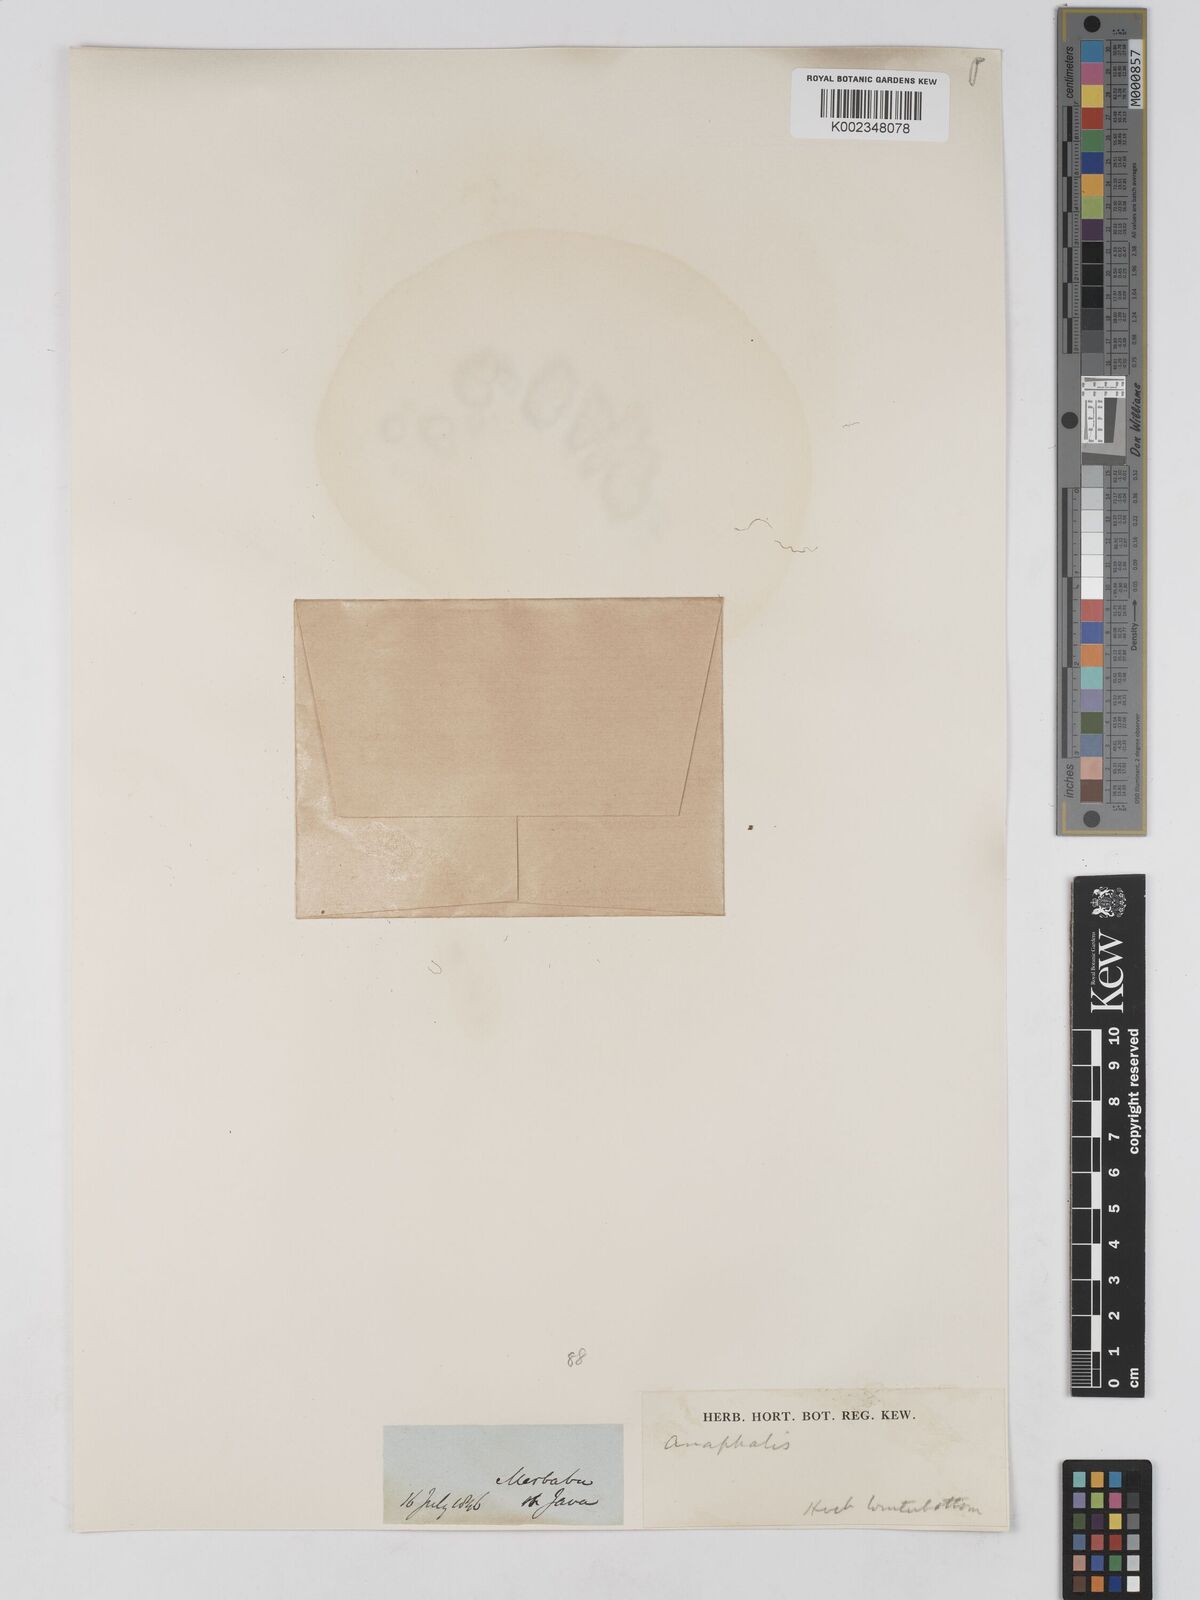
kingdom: Plantae
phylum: Tracheophyta
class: Magnoliopsida
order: Asterales
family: Asteraceae
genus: Anaphalis
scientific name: Anaphalis
